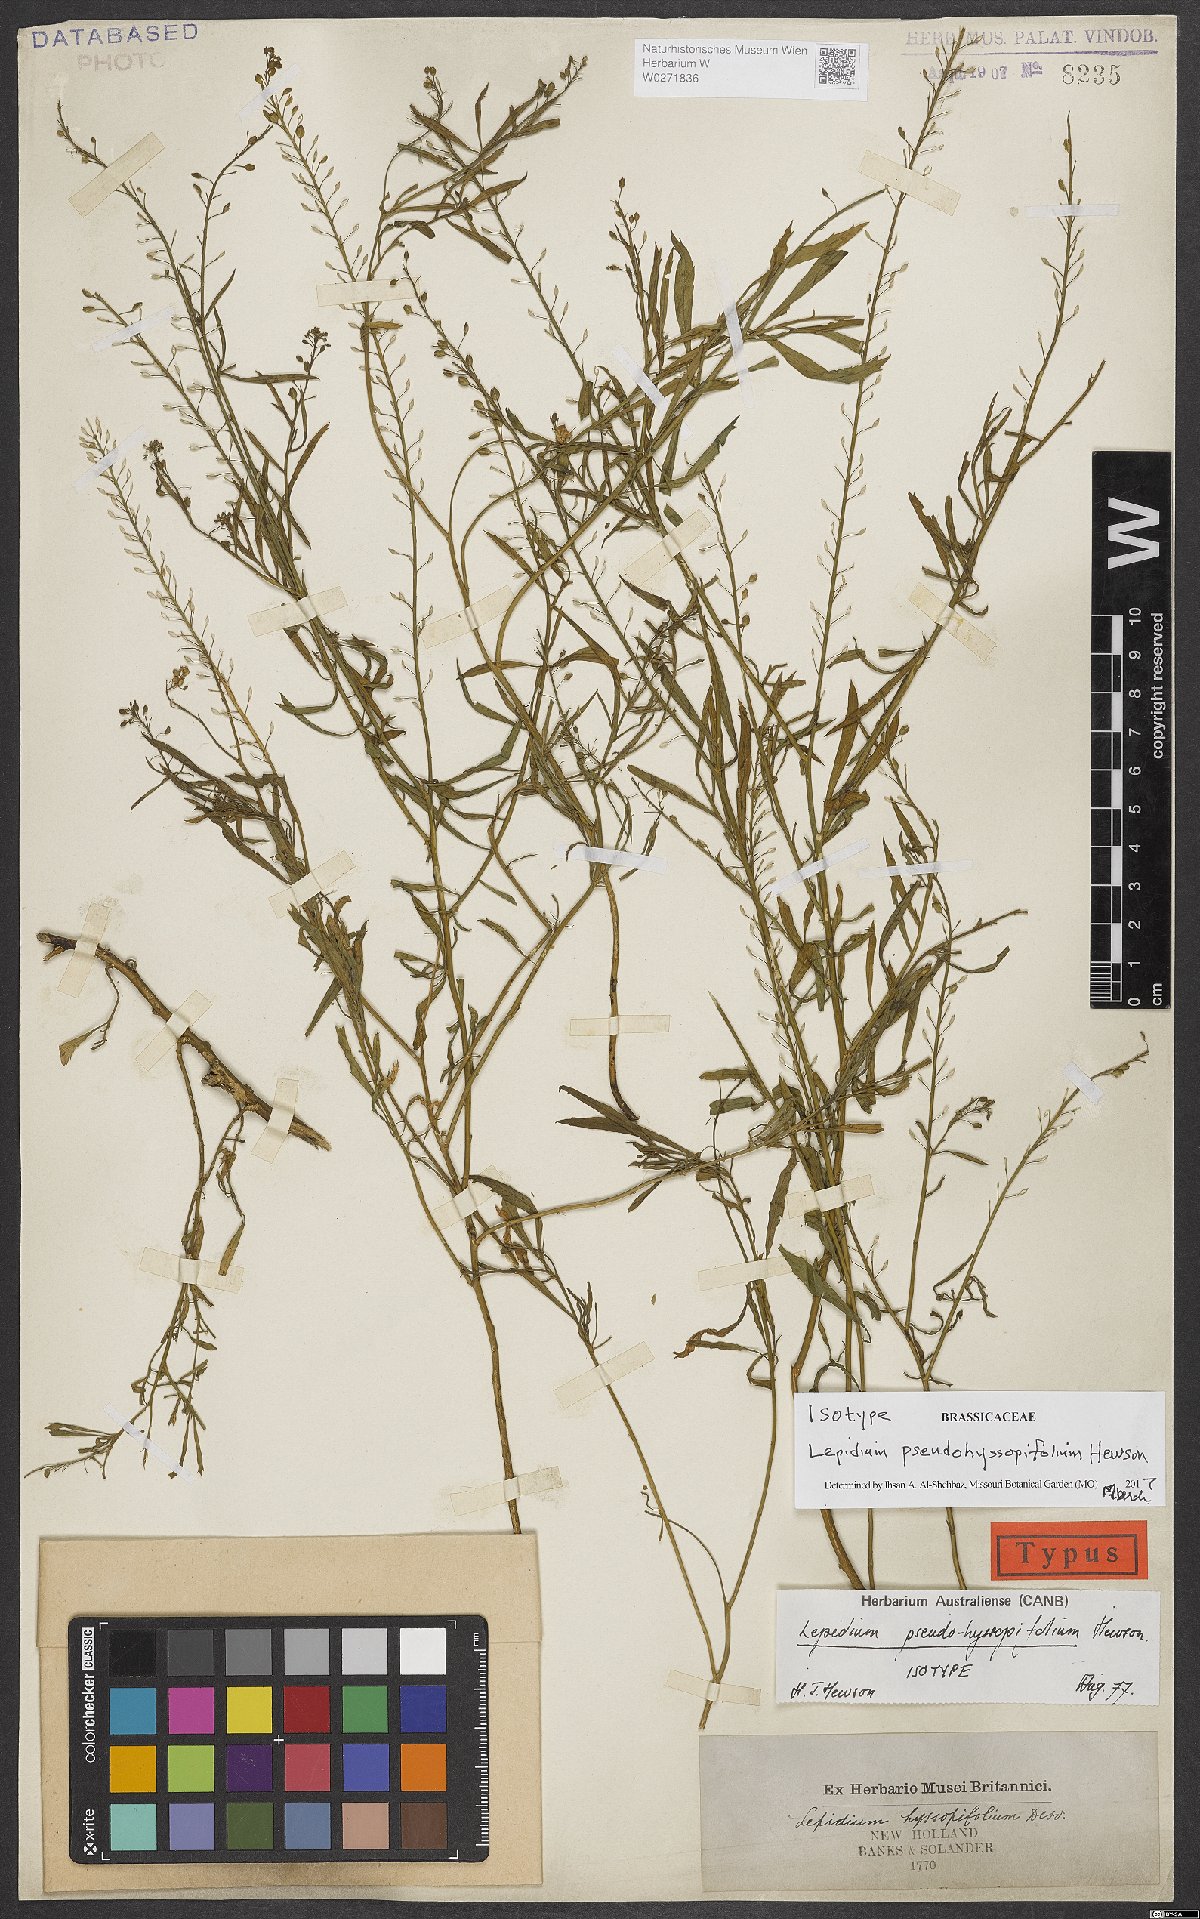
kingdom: Plantae
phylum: Tracheophyta
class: Magnoliopsida
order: Brassicales
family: Brassicaceae
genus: Lepidium
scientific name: Lepidium pseudohyssopifolium
